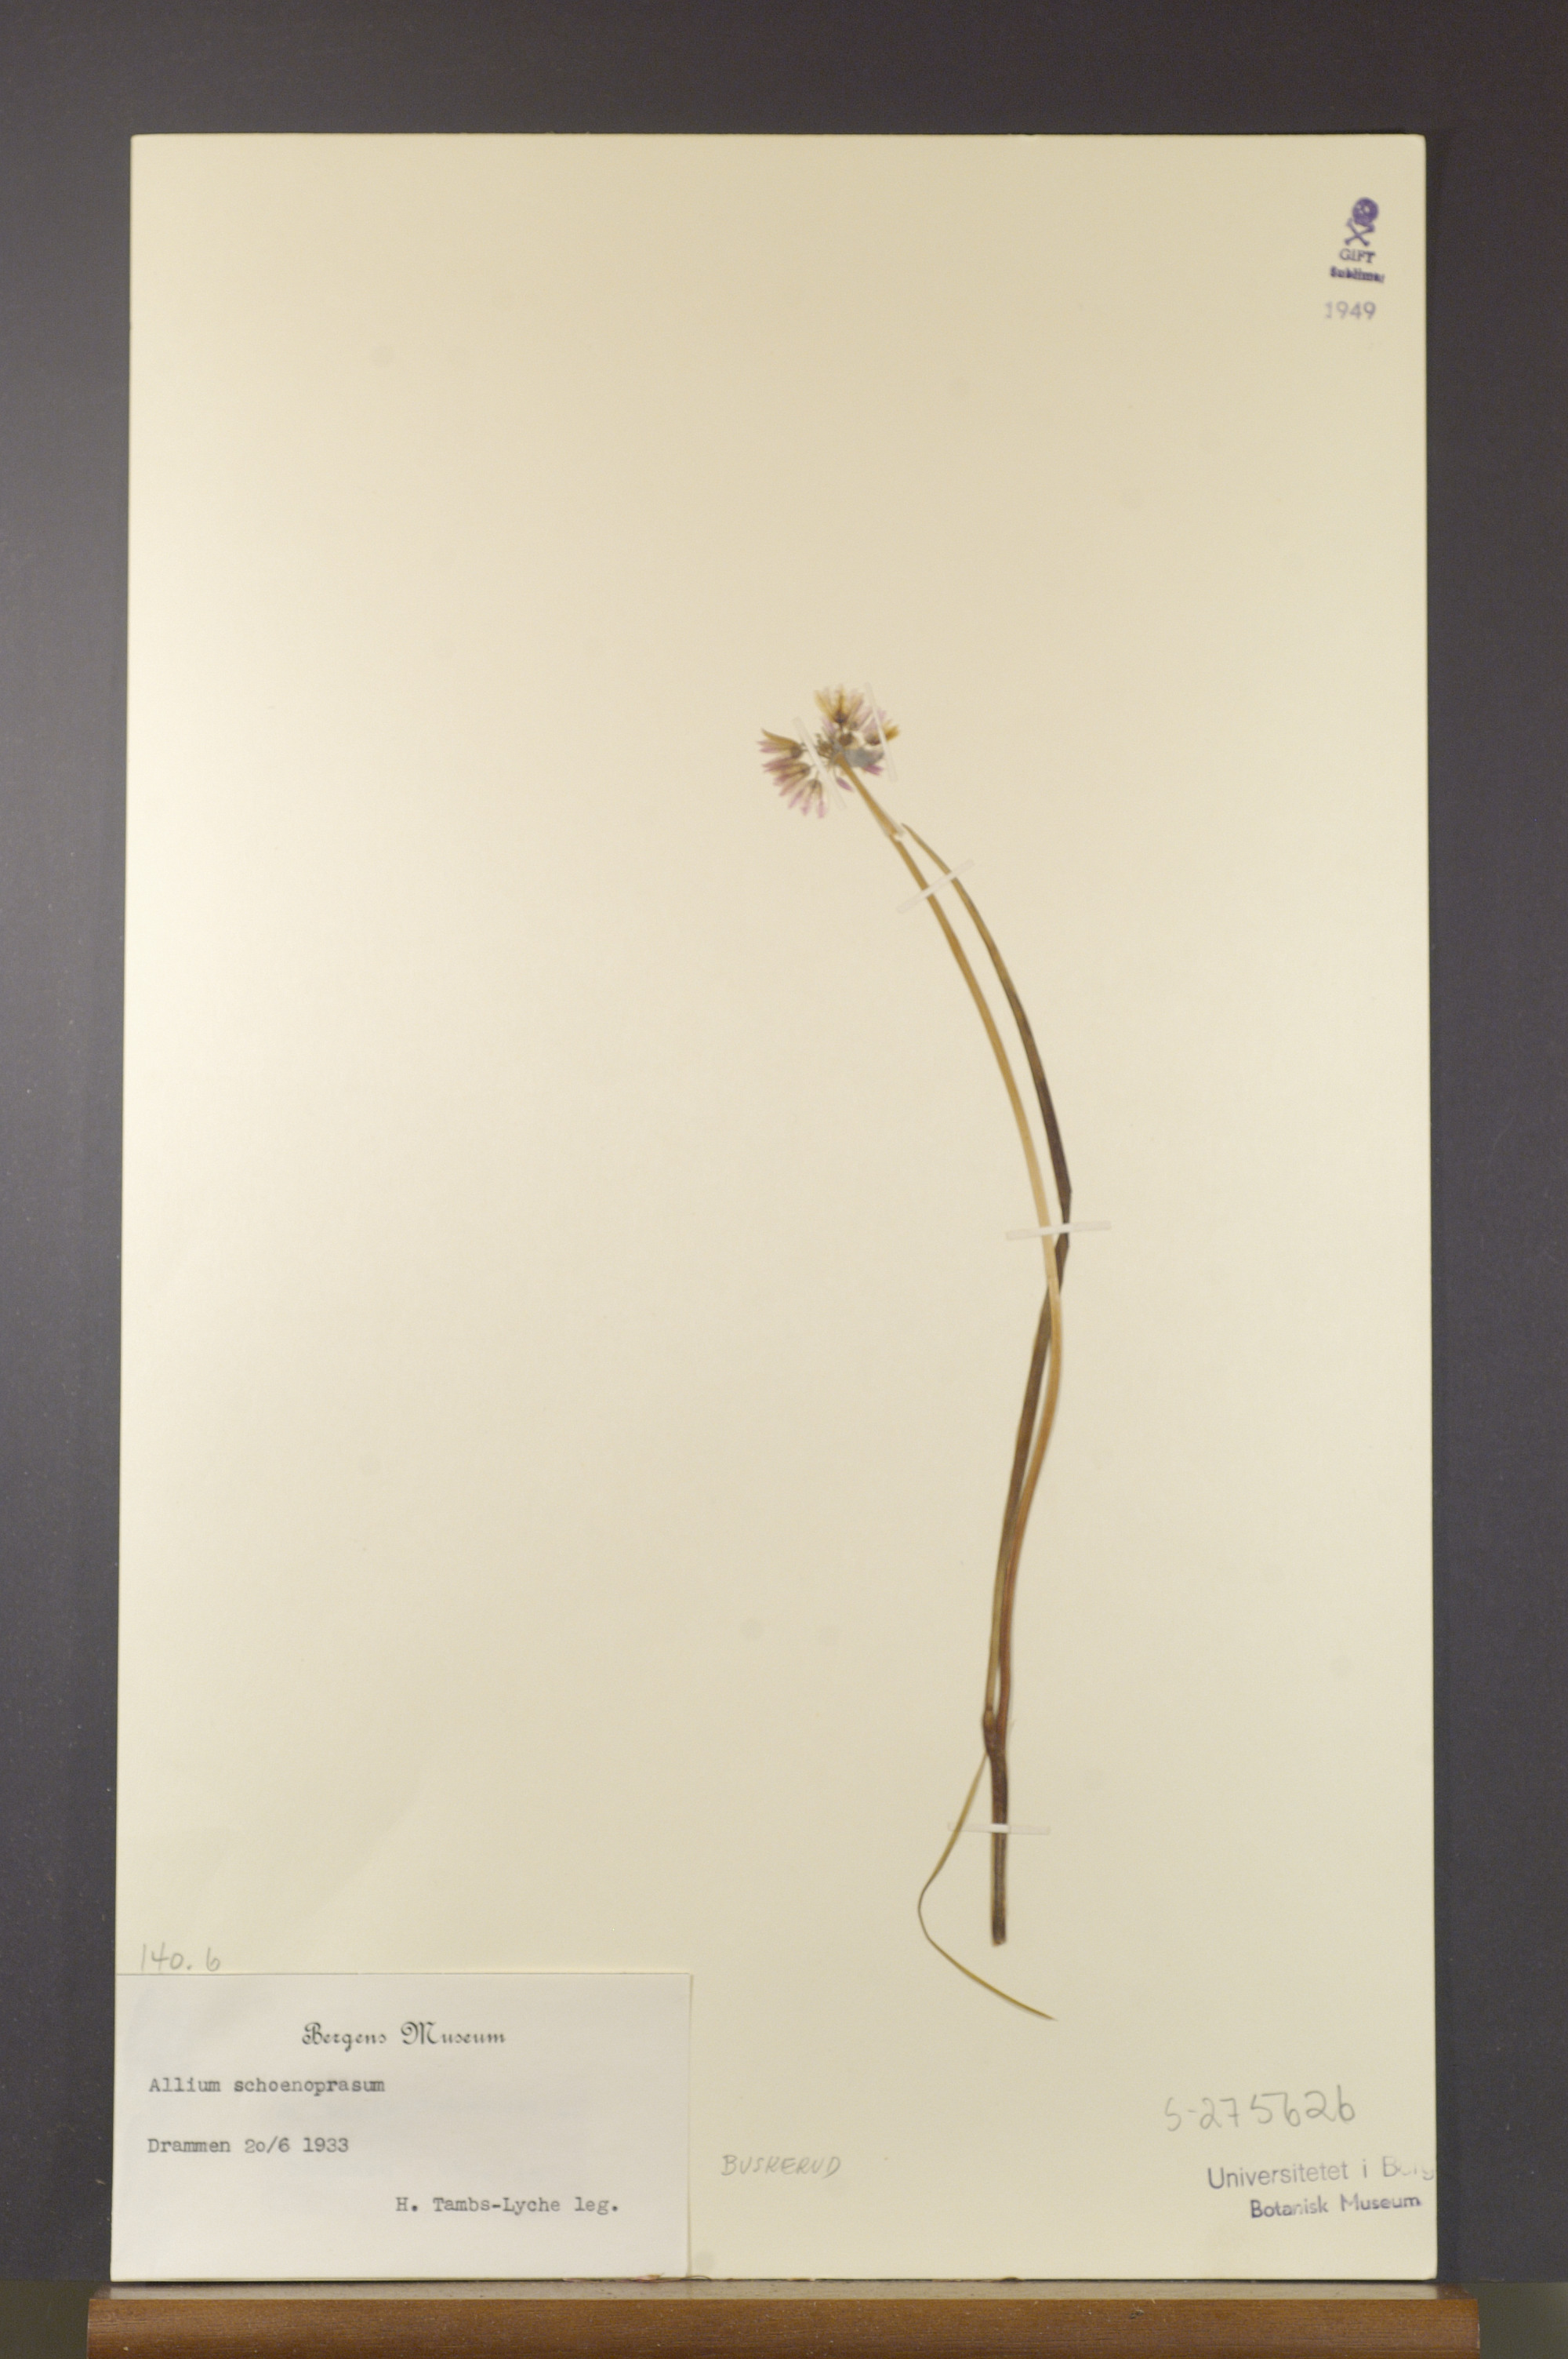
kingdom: Plantae
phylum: Tracheophyta
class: Liliopsida
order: Asparagales
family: Amaryllidaceae
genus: Allium
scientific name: Allium schoenoprasum
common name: Chives
